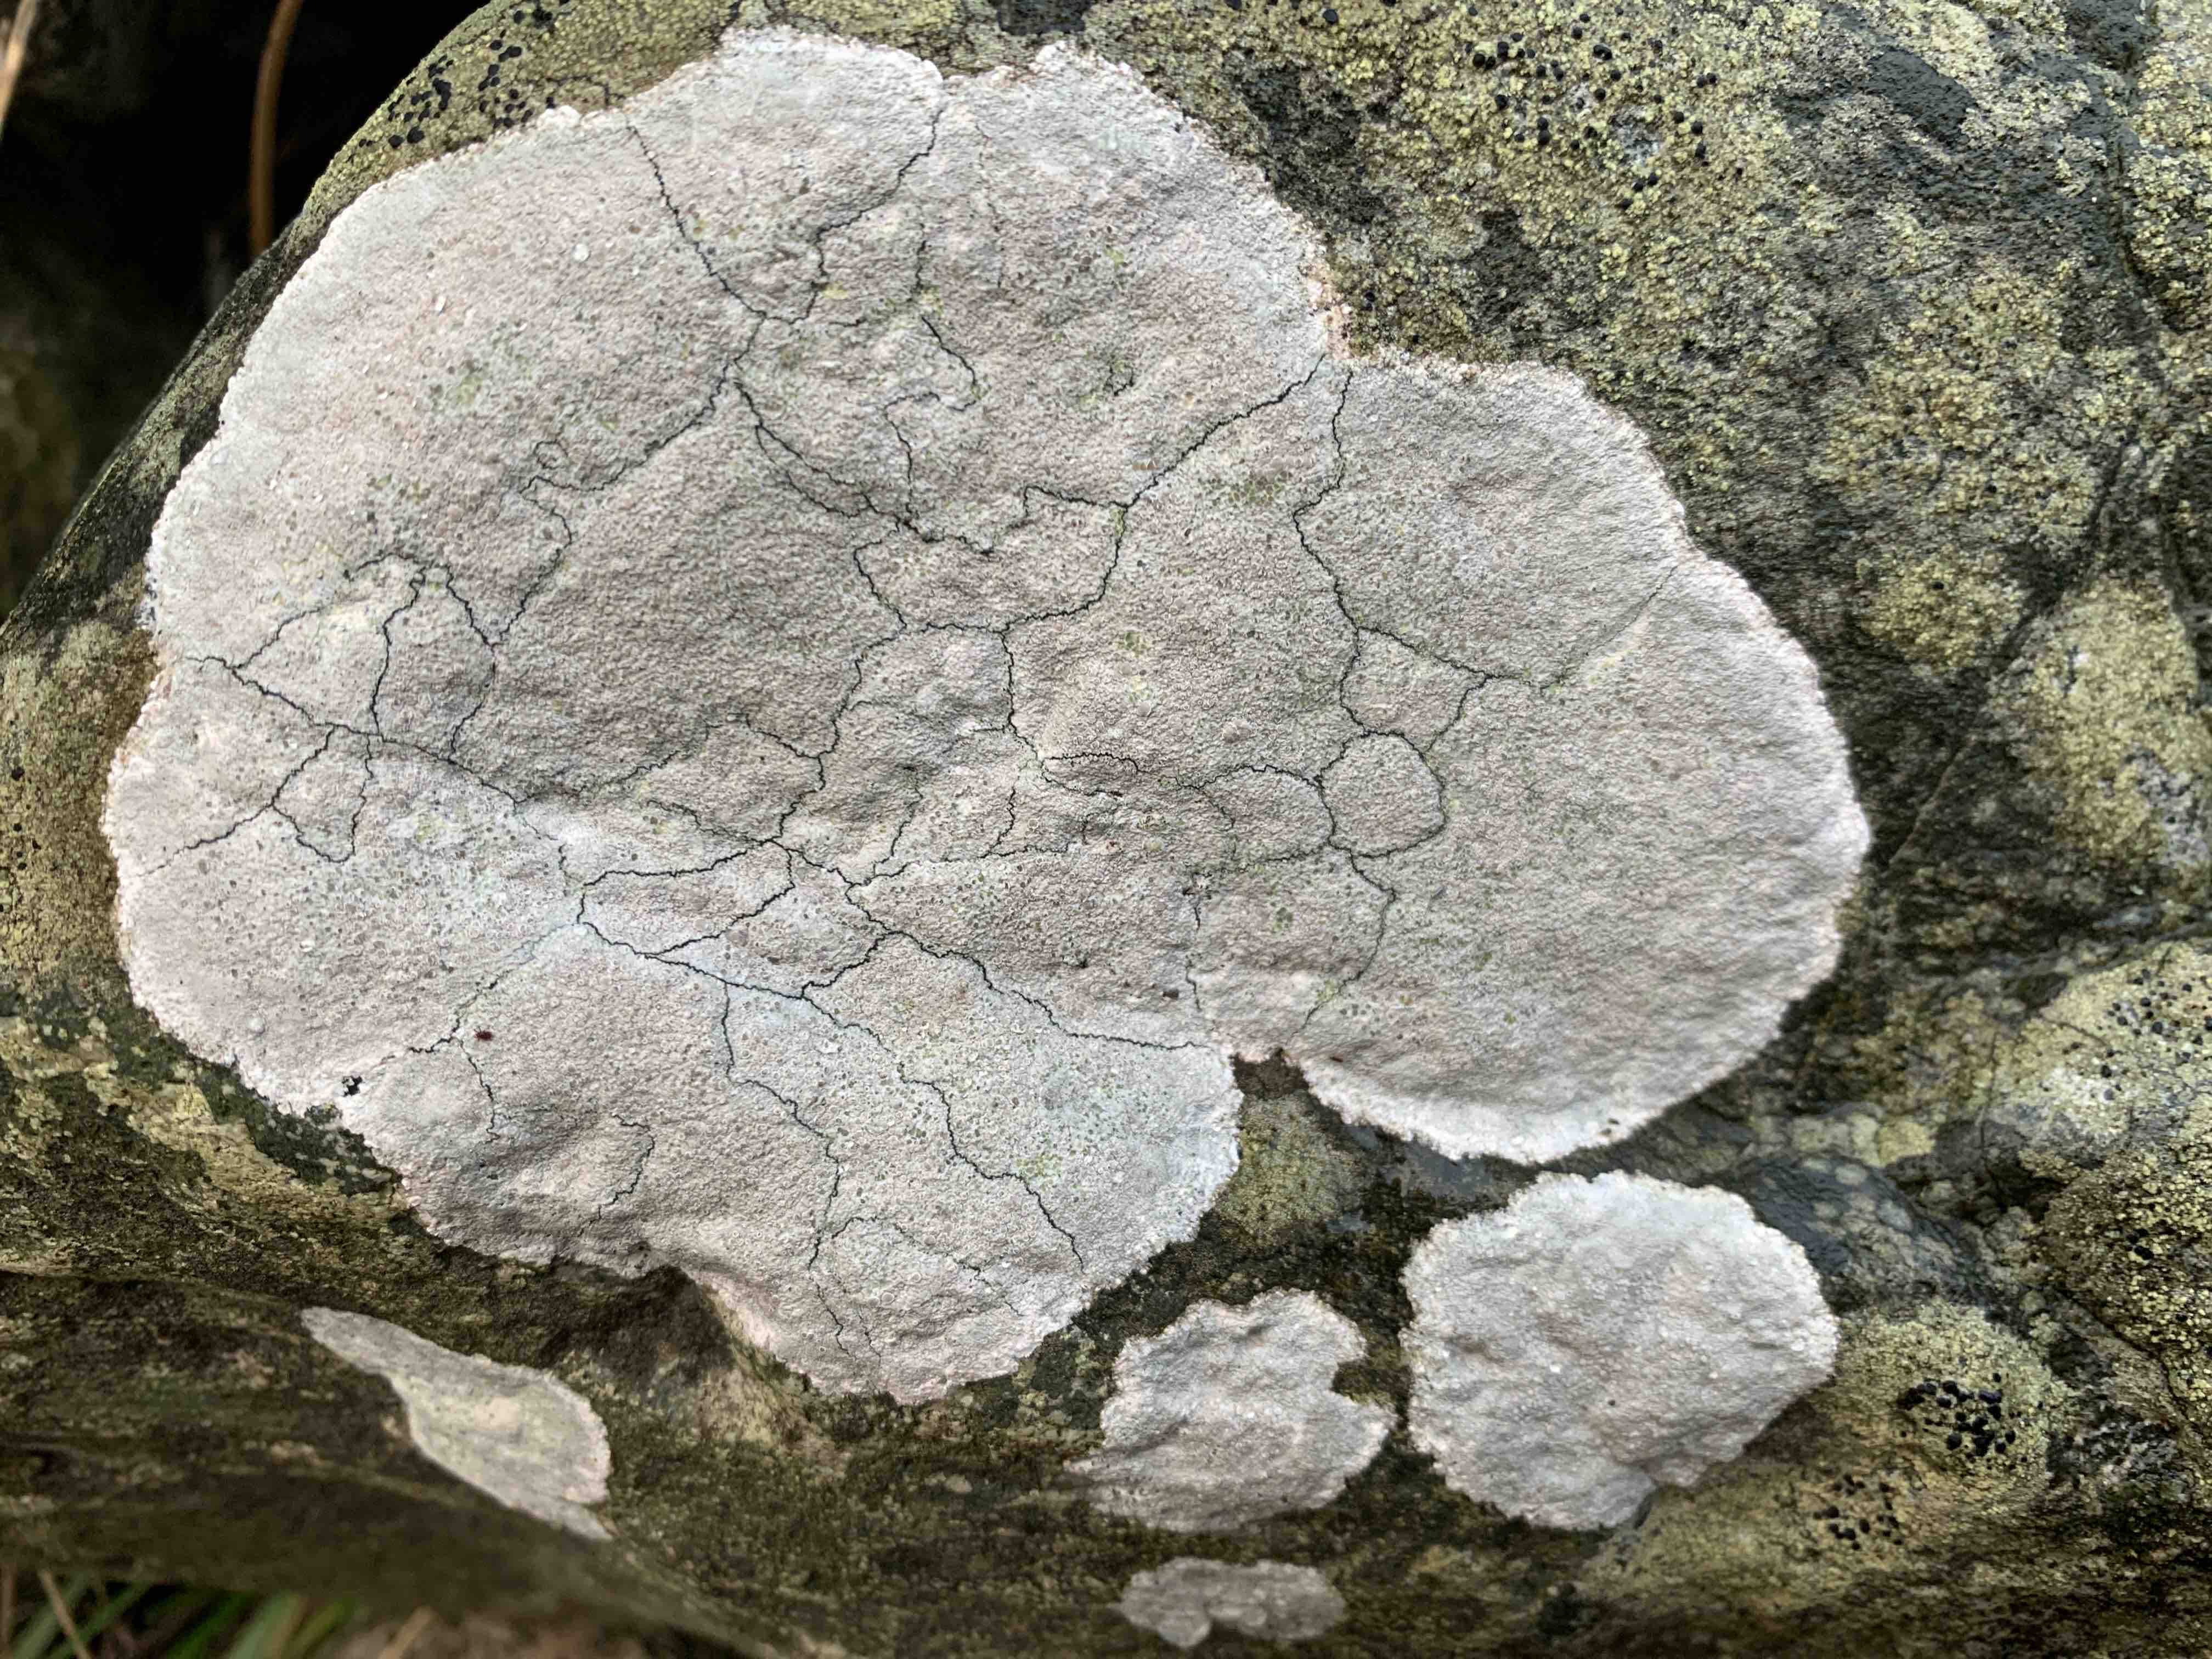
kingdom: Fungi
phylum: Ascomycota
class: Lecanoromycetes
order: Lecanorales
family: Lecanoraceae
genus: Glaucomaria
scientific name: Glaucomaria rupicola
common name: stengærde-kantskivelav
